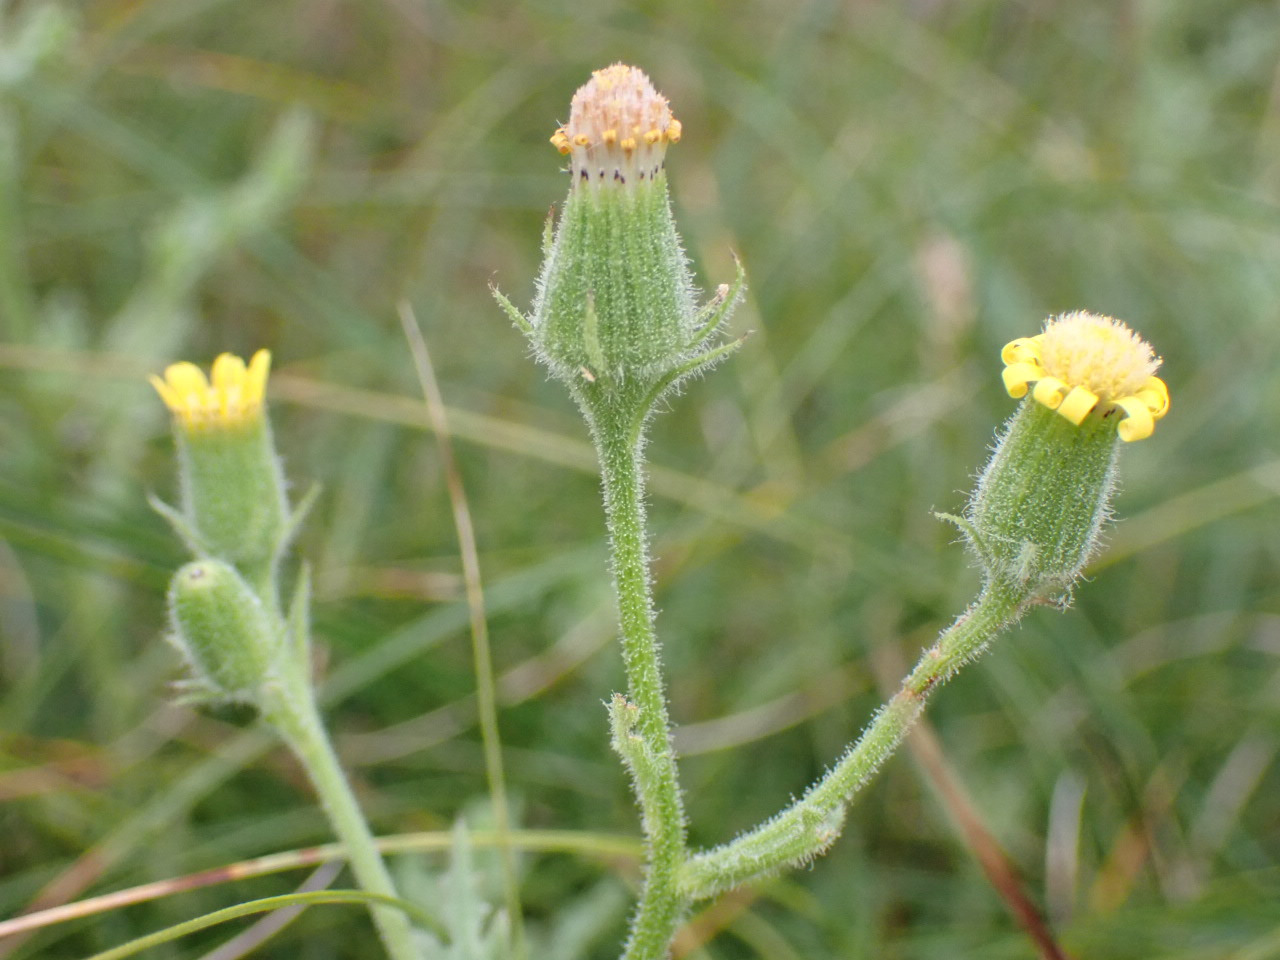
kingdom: Plantae
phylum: Tracheophyta
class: Magnoliopsida
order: Asterales
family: Asteraceae
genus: Senecio
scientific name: Senecio viscosus
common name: Klæbrig brandbæger
